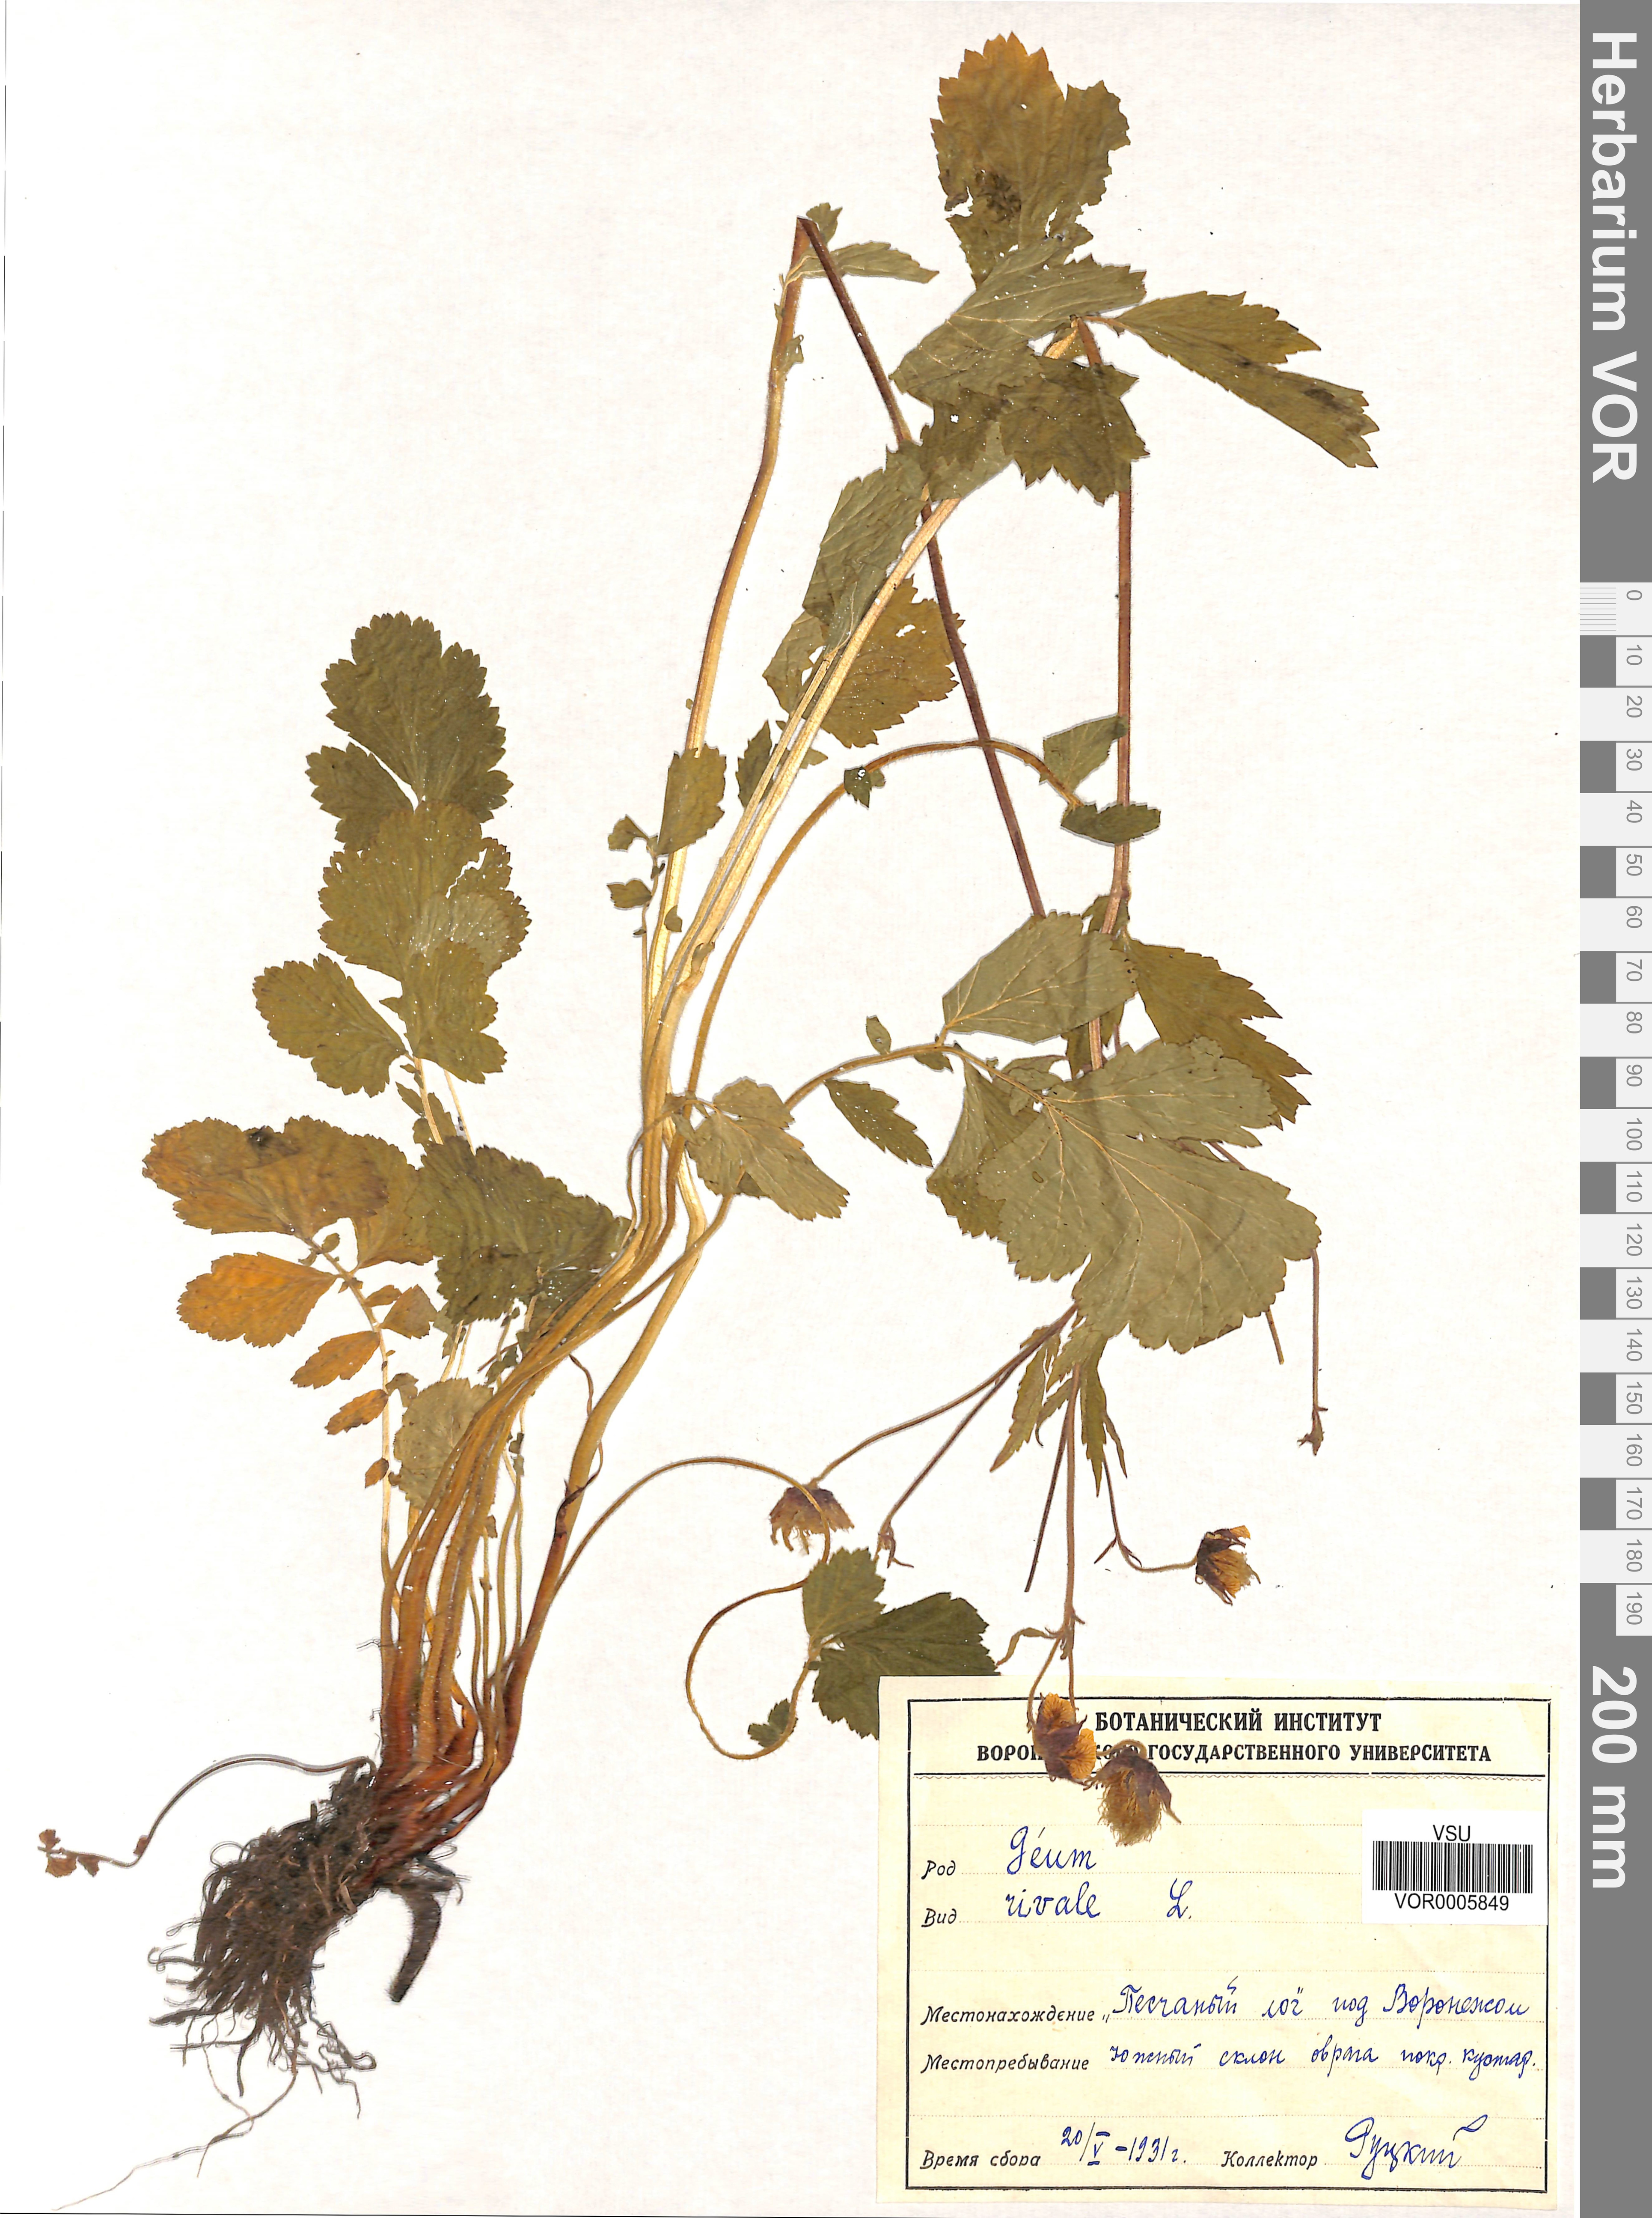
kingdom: Plantae
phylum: Tracheophyta
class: Magnoliopsida
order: Rosales
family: Rosaceae
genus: Geum
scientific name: Geum rivale
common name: Water avens
